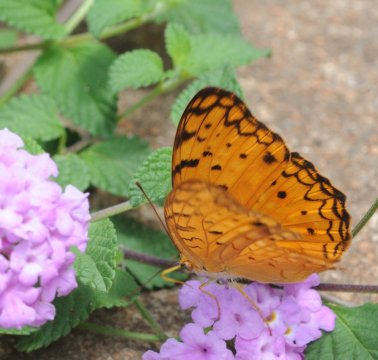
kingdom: Animalia
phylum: Arthropoda
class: Insecta
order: Lepidoptera
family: Nymphalidae
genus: Phalanta
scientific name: Phalanta phalantha
